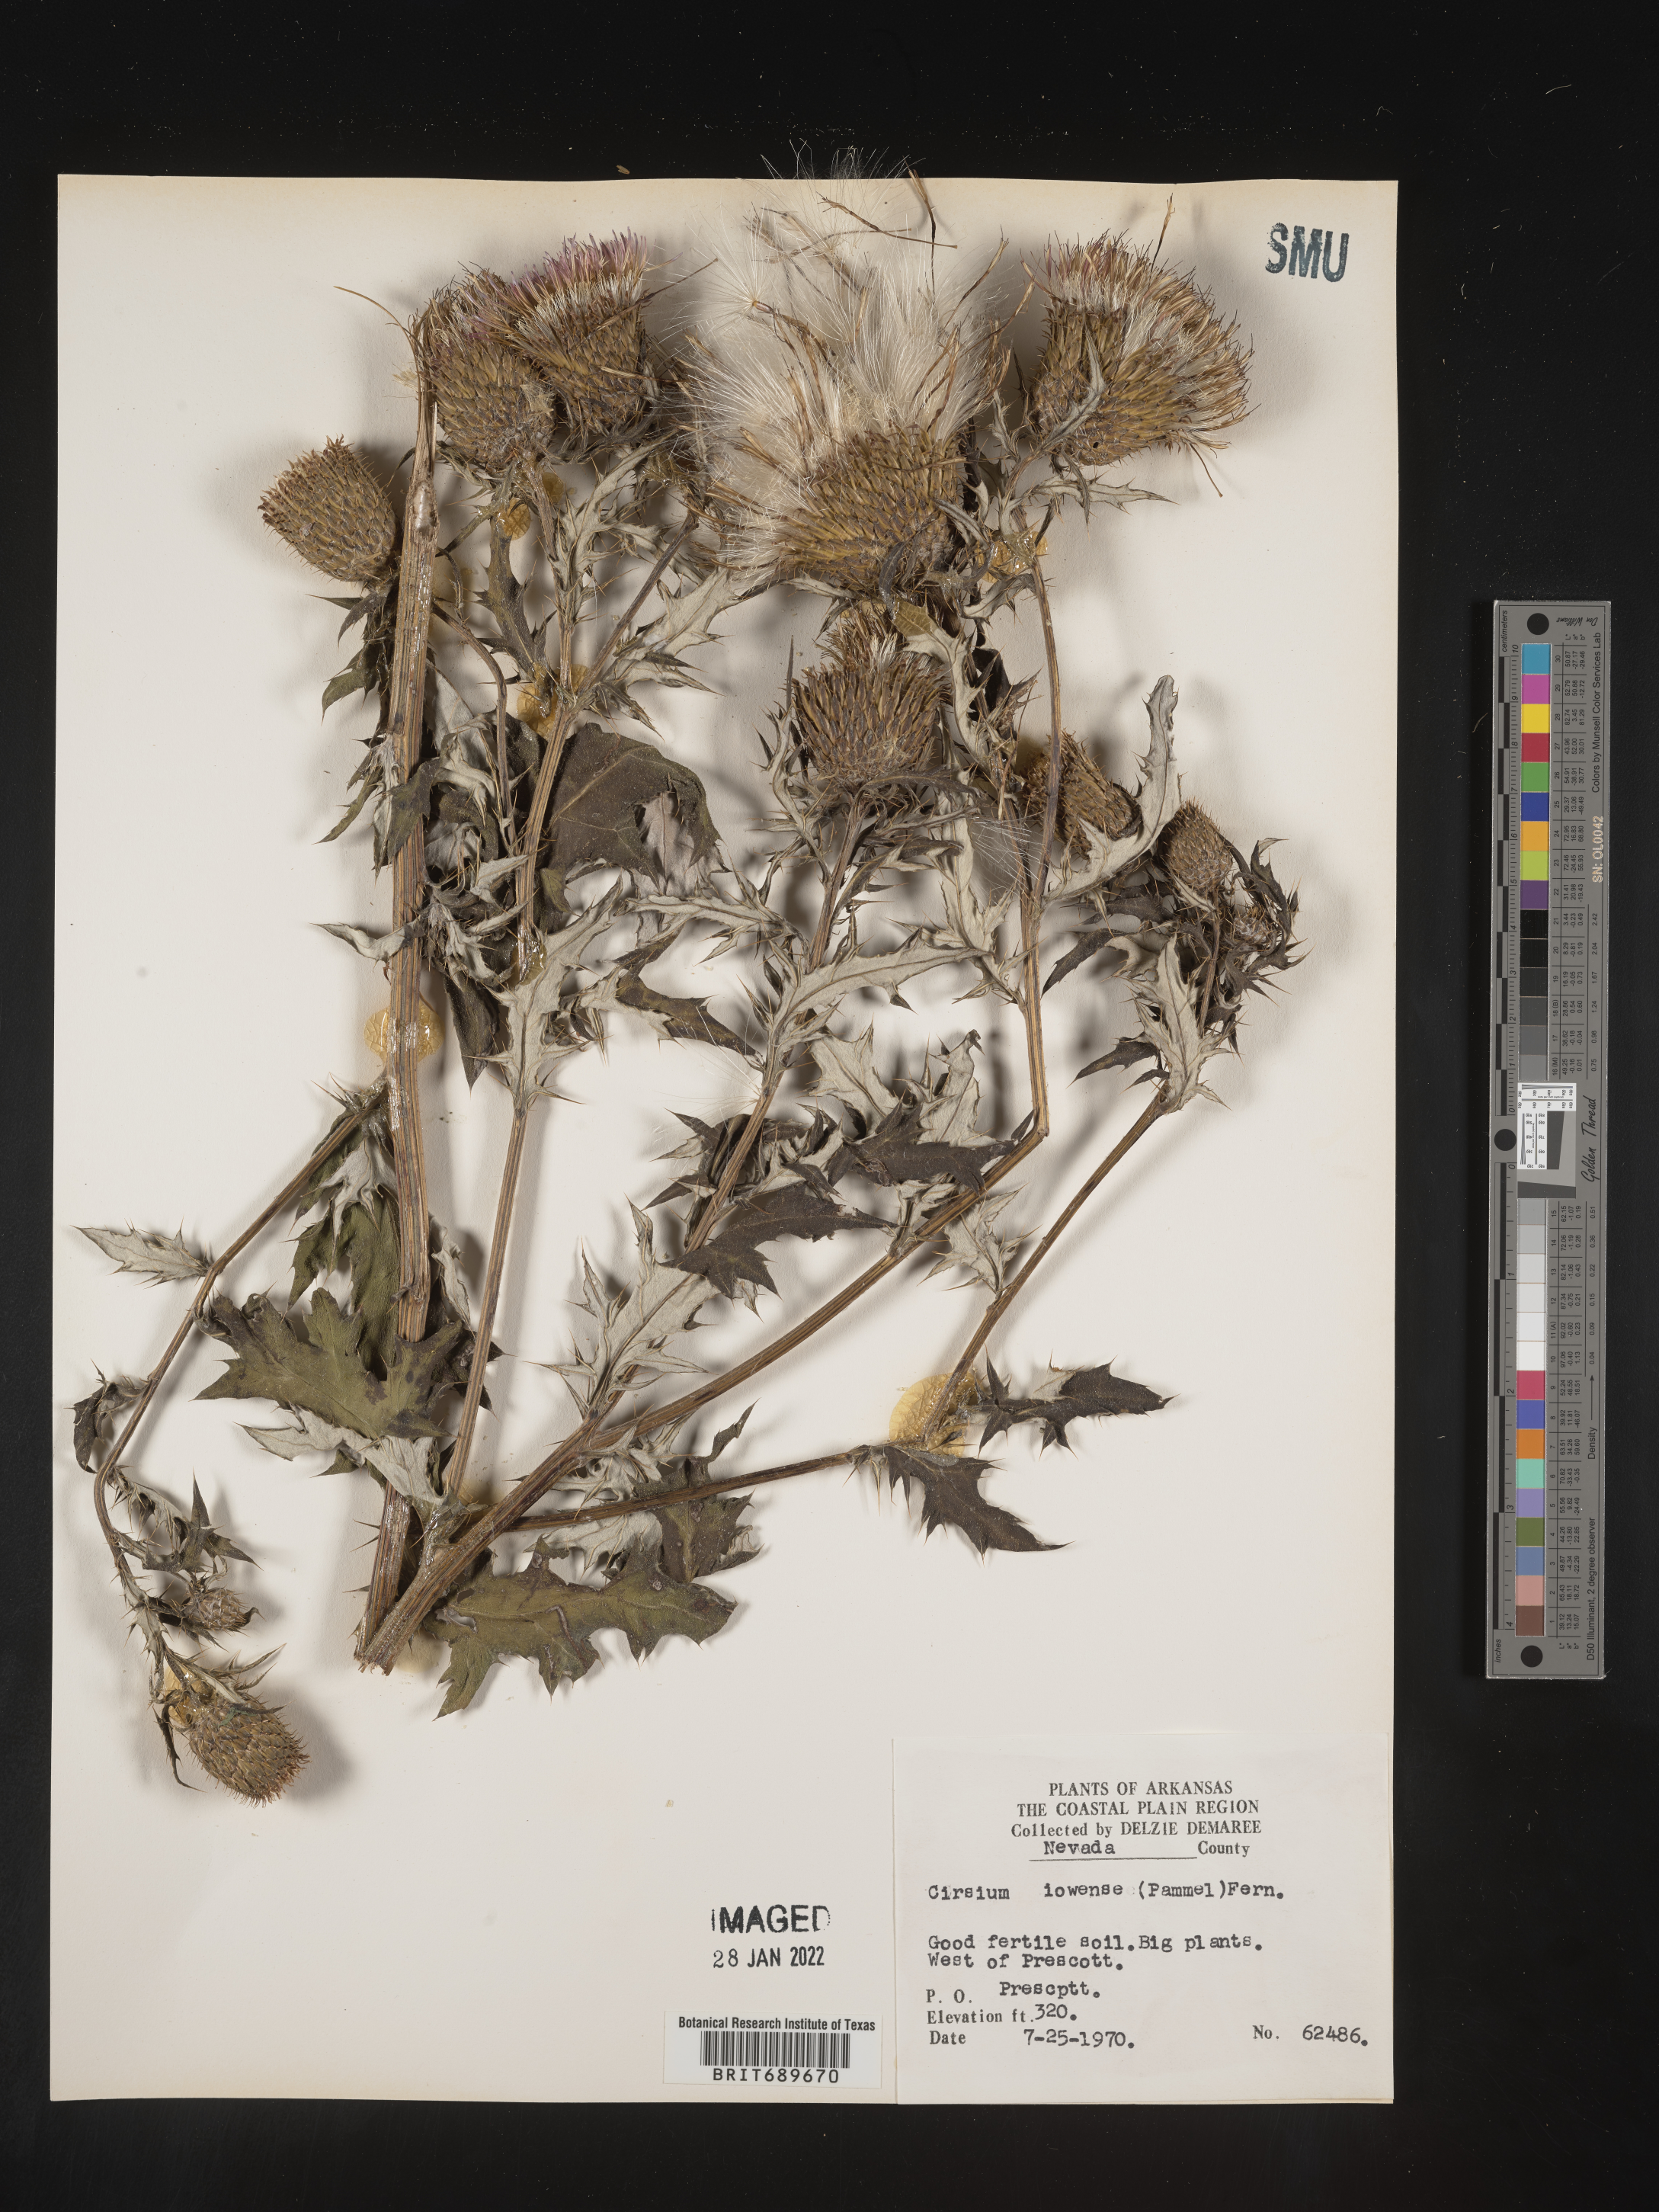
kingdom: Plantae
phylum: Tracheophyta
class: Magnoliopsida
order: Asterales
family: Asteraceae
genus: Cirsium
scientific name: Cirsium altissimum
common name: Roadside thistle
